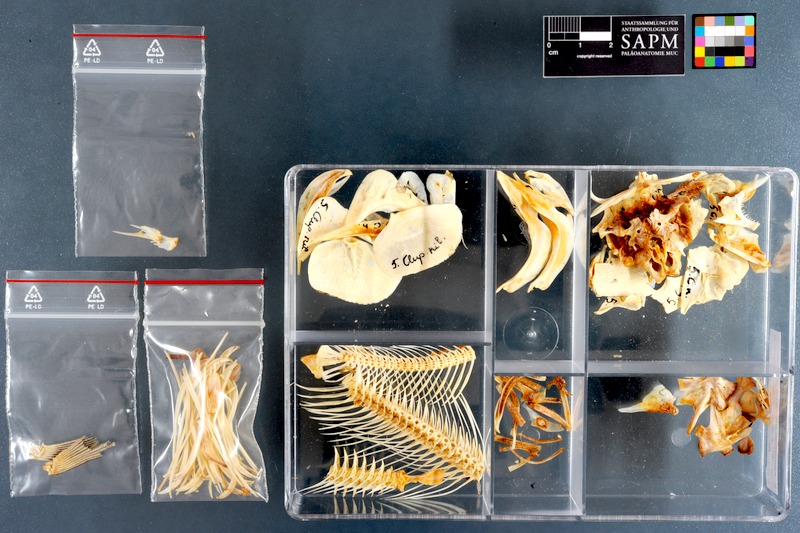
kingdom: Animalia
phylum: Chordata
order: Osteoglossiformes
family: Arapaimidae
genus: Heterotis
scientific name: Heterotis niloticus
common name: African bonytongue
